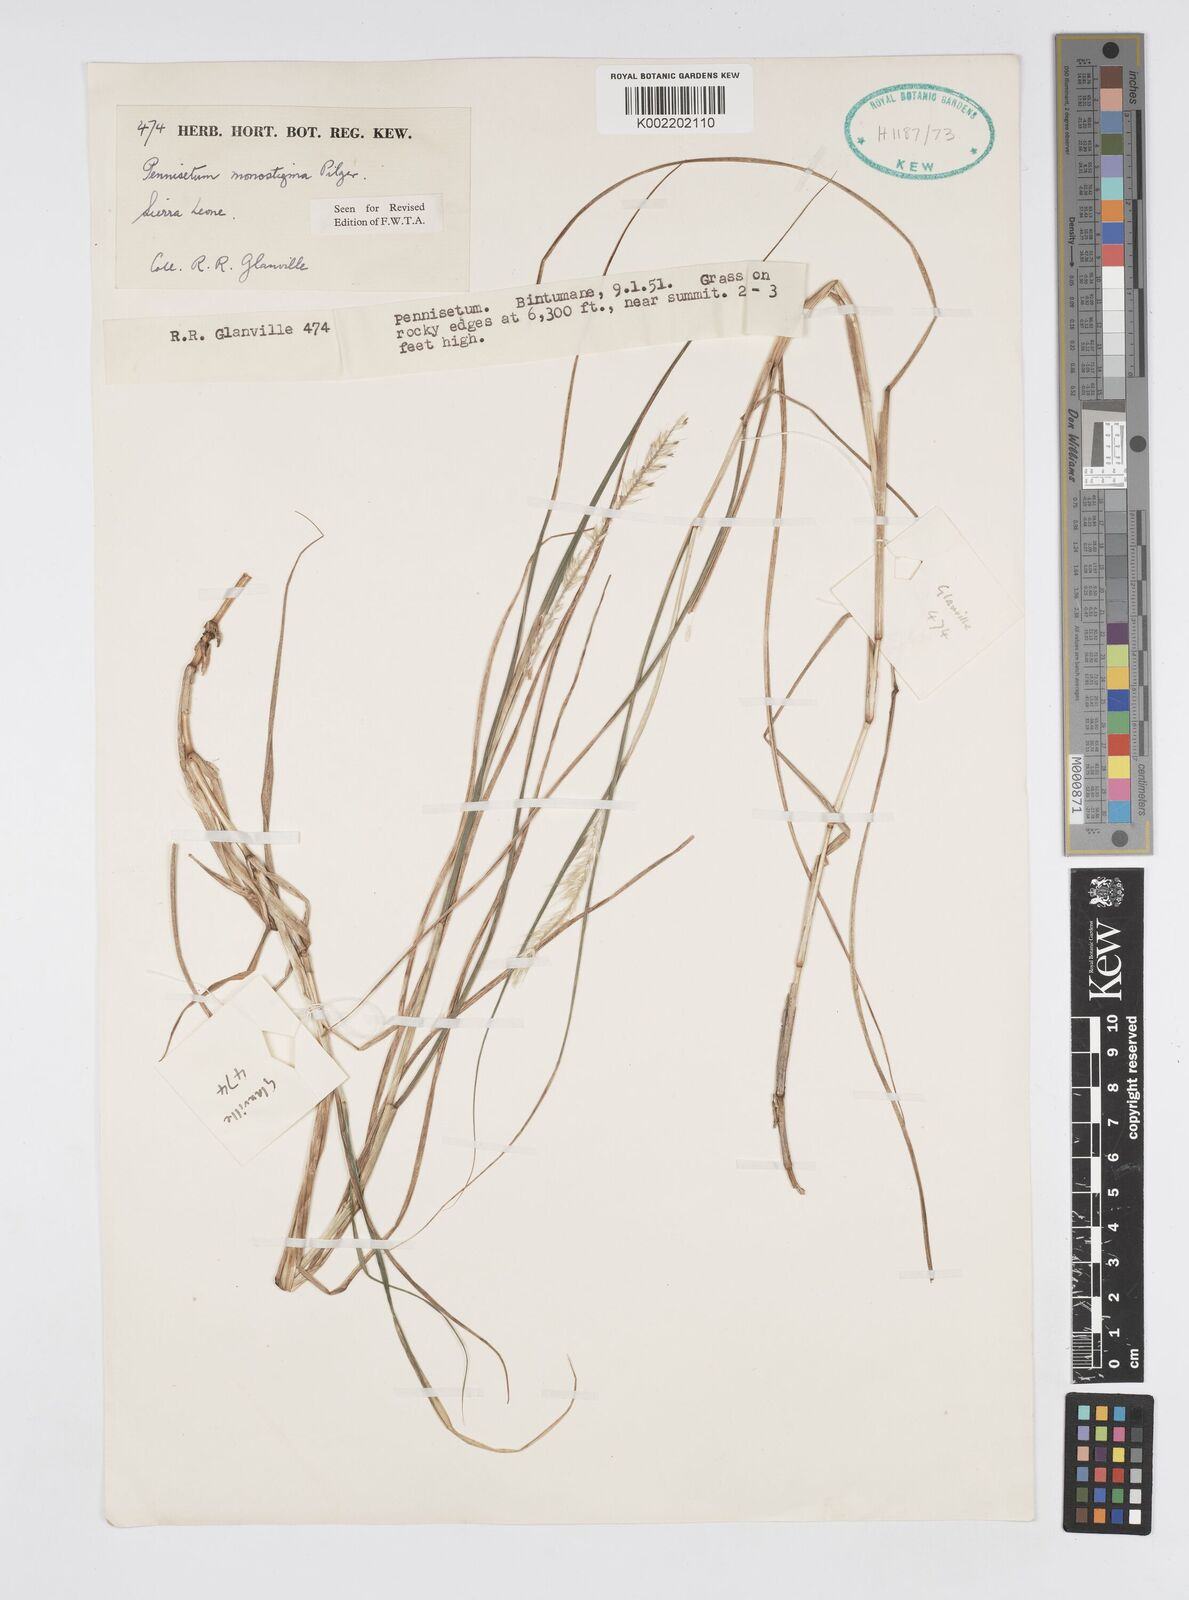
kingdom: Plantae
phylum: Tracheophyta
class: Liliopsida
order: Poales
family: Poaceae
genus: Cenchrus
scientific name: Cenchrus monostigma
